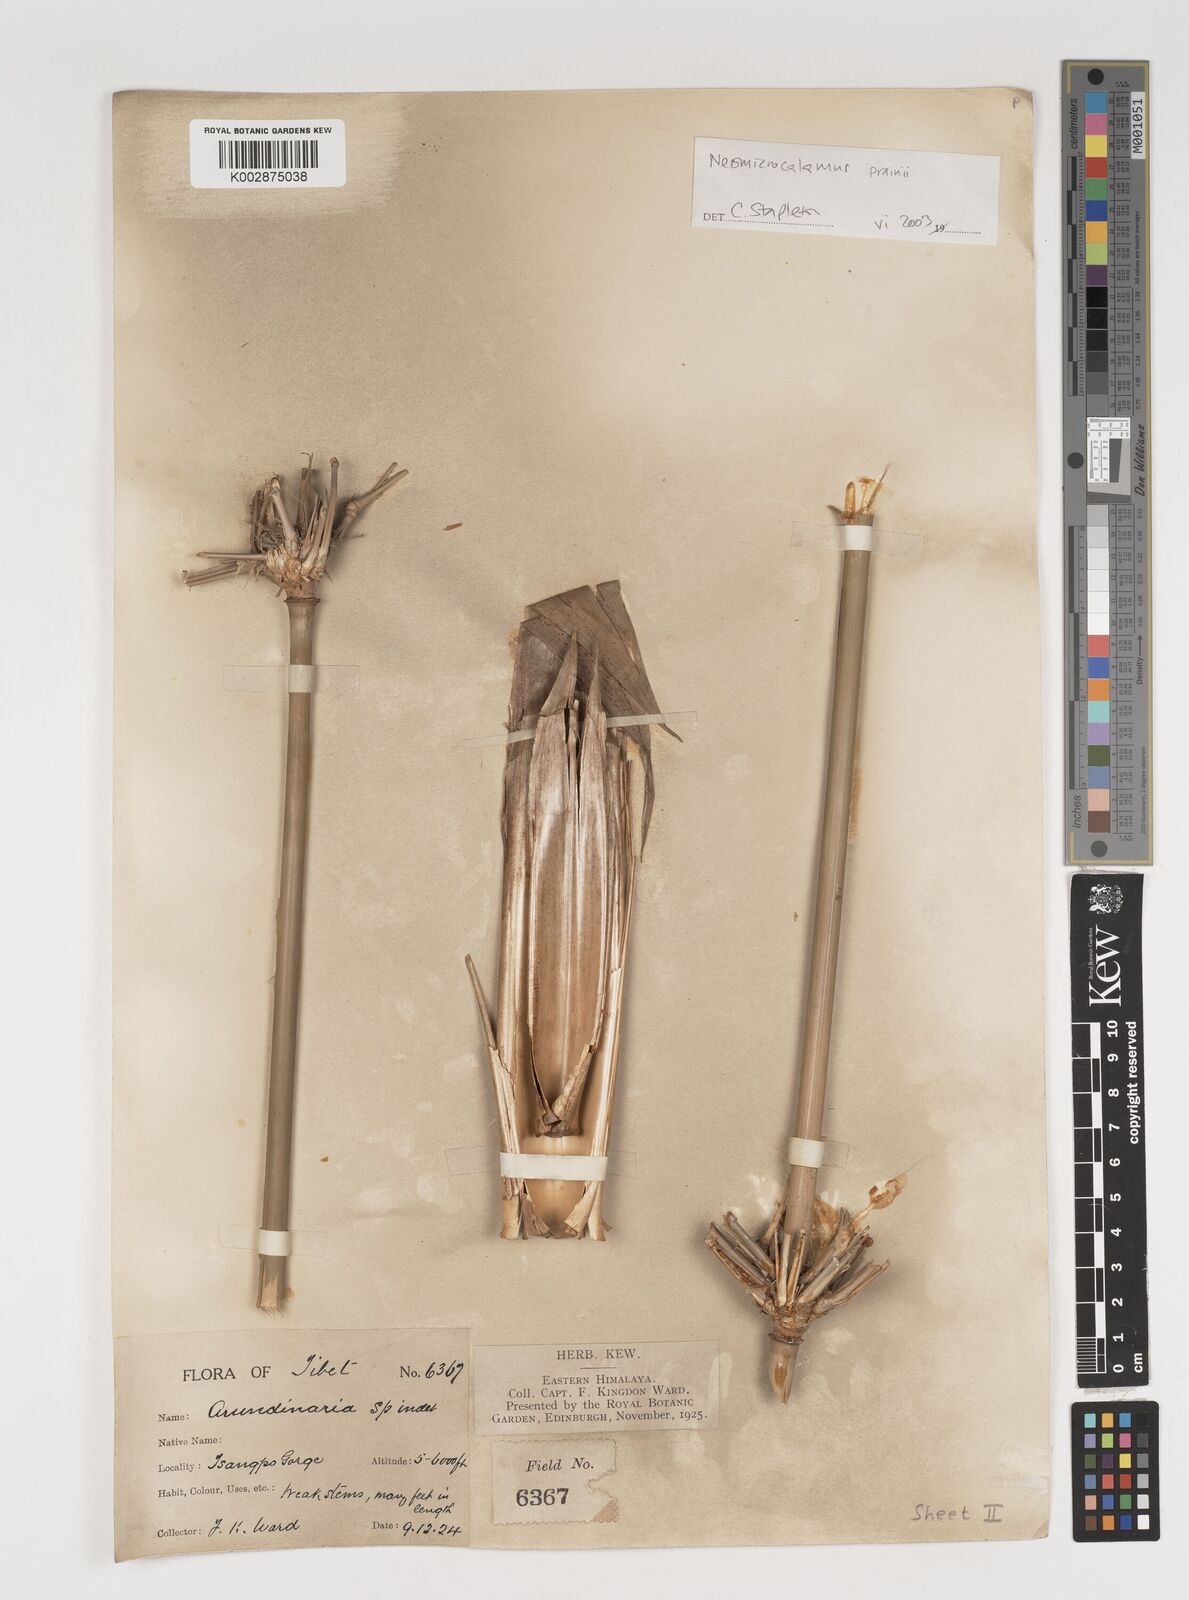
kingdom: Plantae
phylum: Tracheophyta
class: Liliopsida
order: Poales
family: Poaceae
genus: Ampelocalamus
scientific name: Ampelocalamus microphyllus
